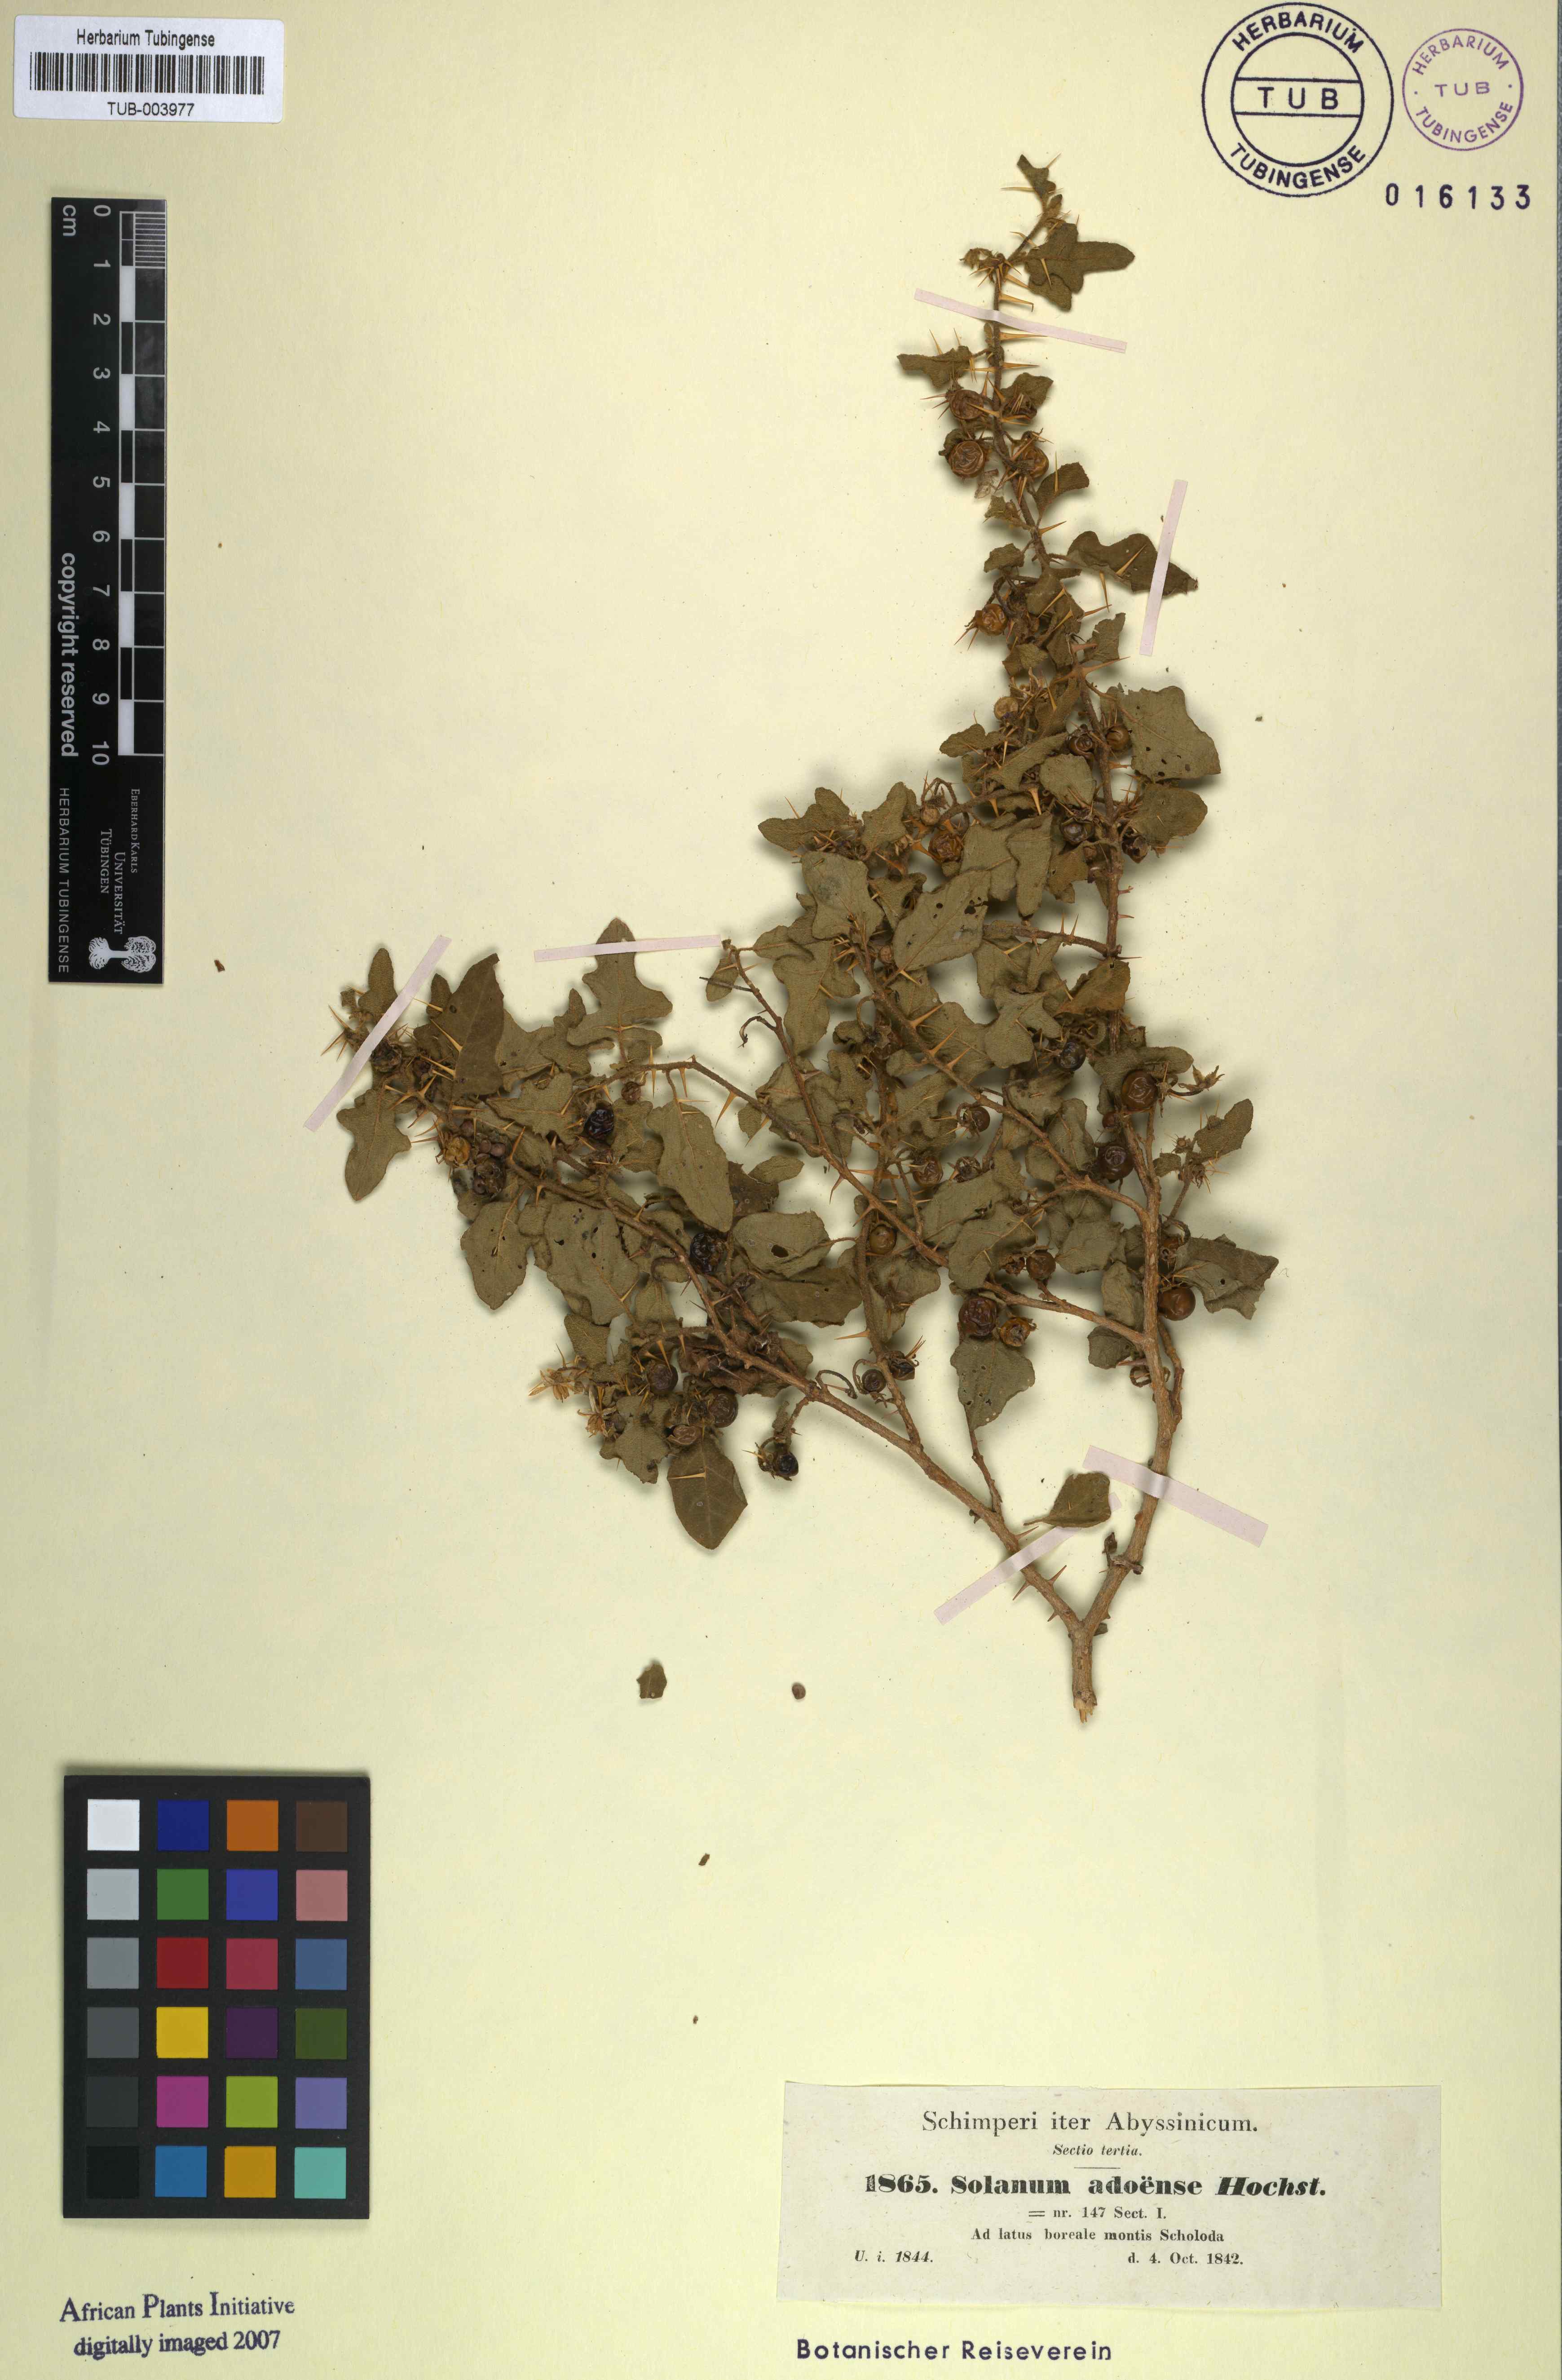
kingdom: Plantae
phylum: Tracheophyta
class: Magnoliopsida
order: Solanales
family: Solanaceae
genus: Solanum
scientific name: Solanum adoense
